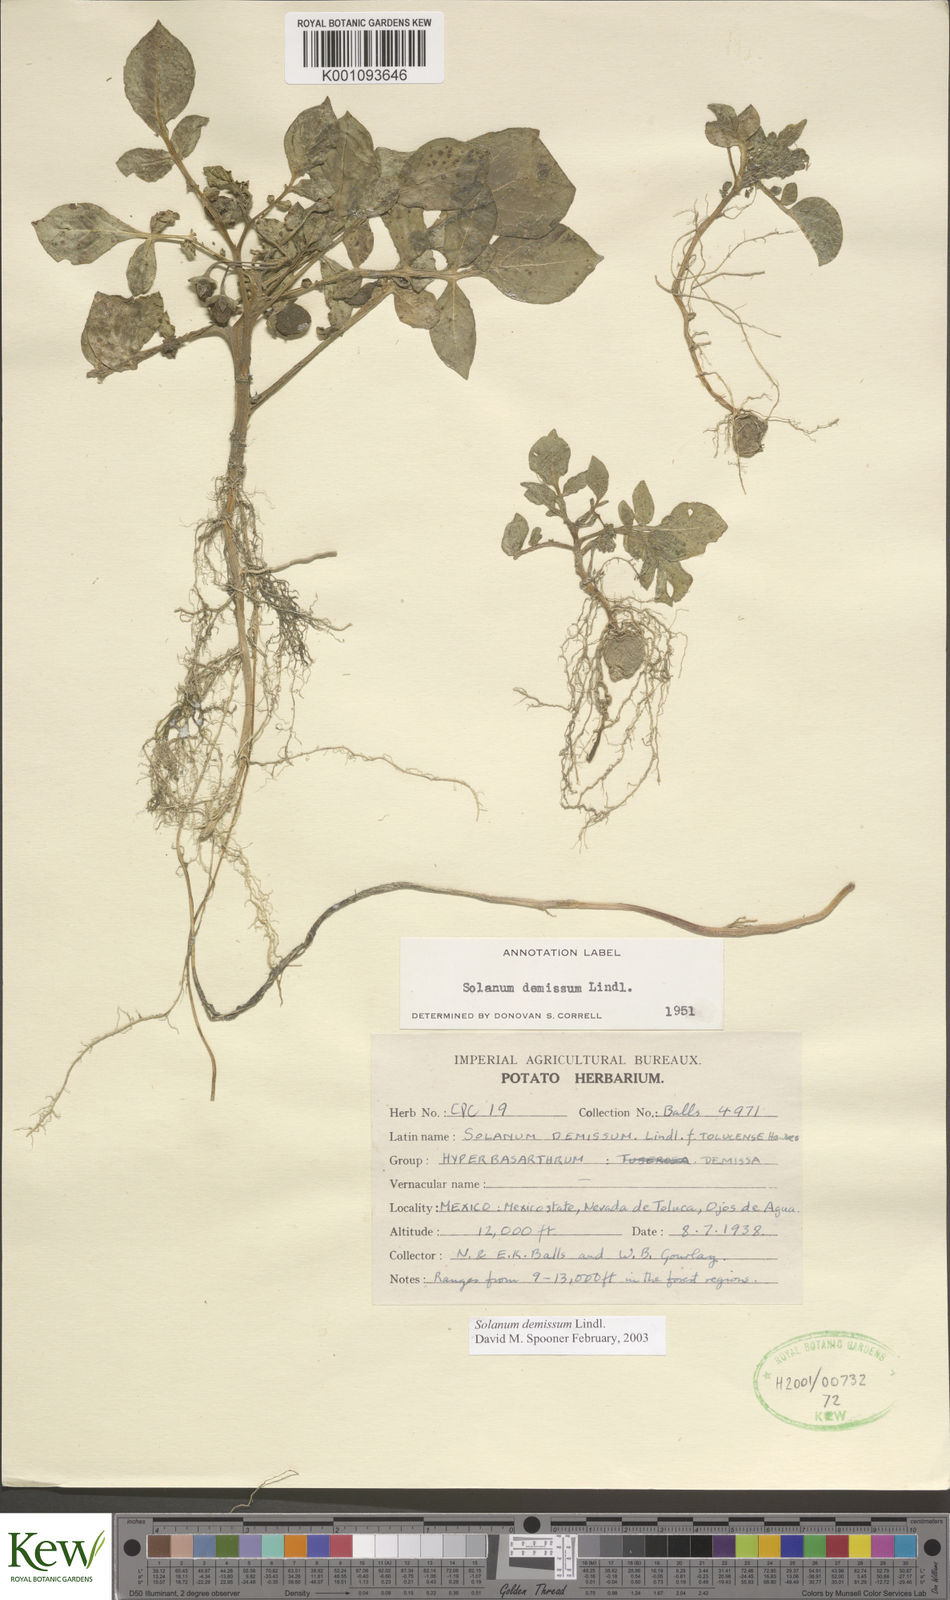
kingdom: Plantae
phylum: Tracheophyta
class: Magnoliopsida
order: Solanales
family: Solanaceae
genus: Solanum
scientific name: Solanum demissum
